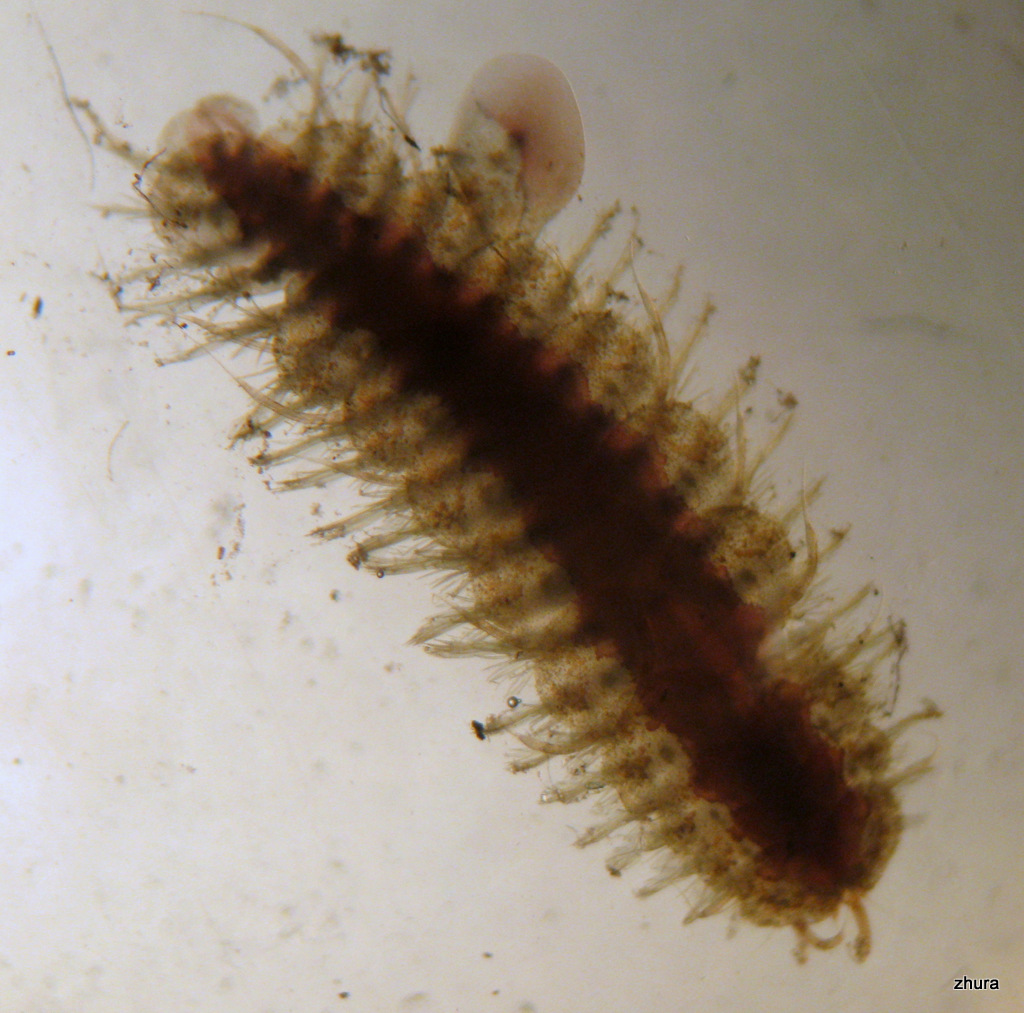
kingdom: Animalia
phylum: Annelida
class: Polychaeta
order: Phyllodocida
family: Polynoidae
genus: Lepidonotus
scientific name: Lepidonotus squamatus
